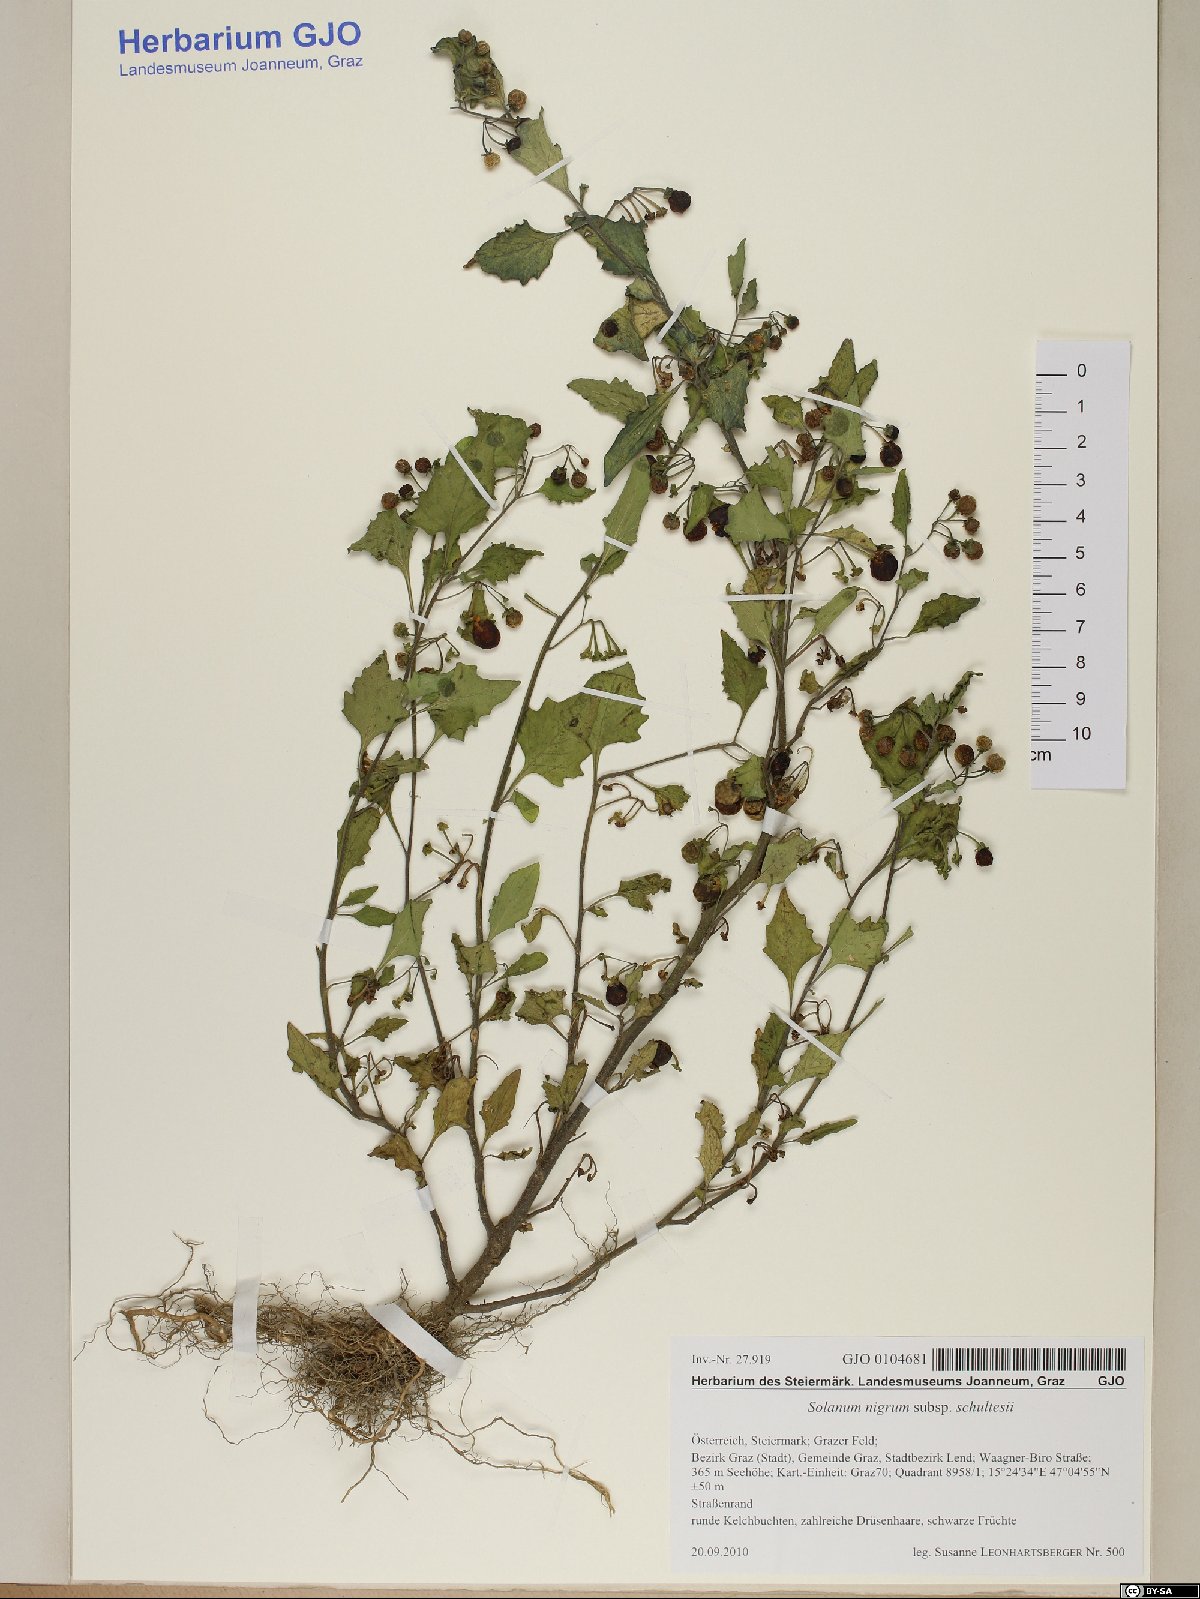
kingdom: Plantae
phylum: Tracheophyta
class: Magnoliopsida
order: Solanales
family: Solanaceae
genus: Solanum
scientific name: Solanum decipiens
